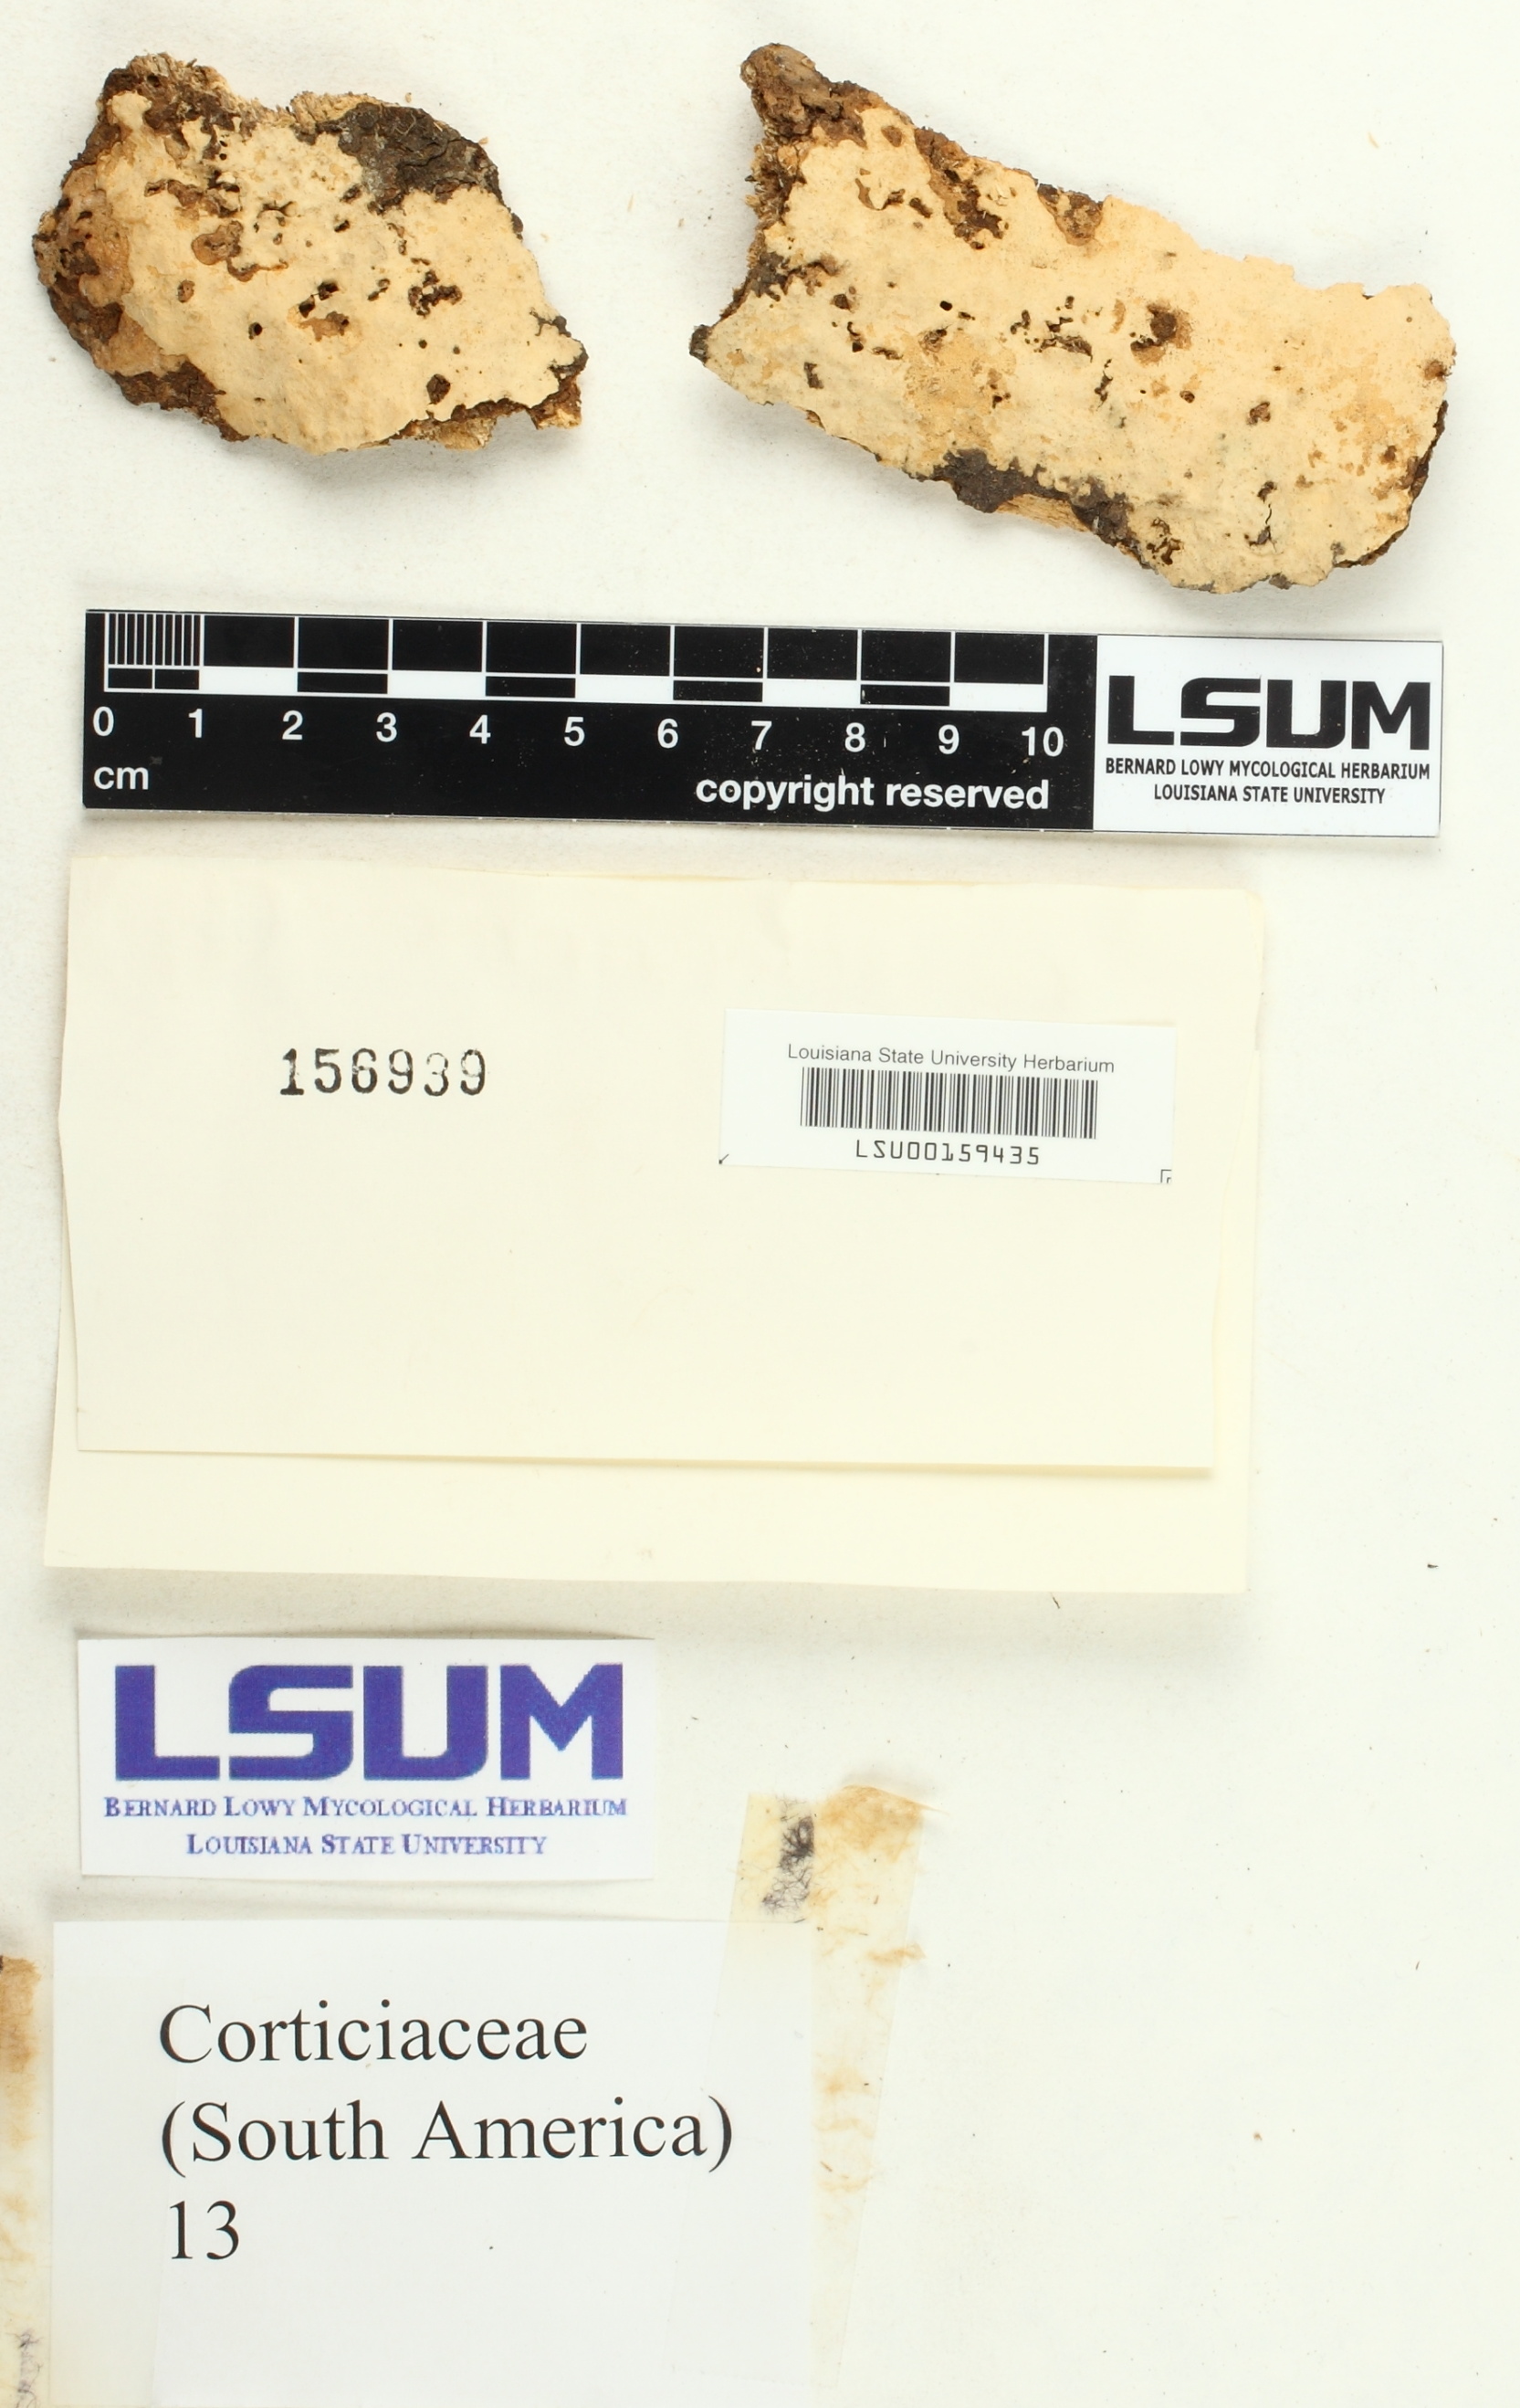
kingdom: Fungi
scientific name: Fungi
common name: Fungi
